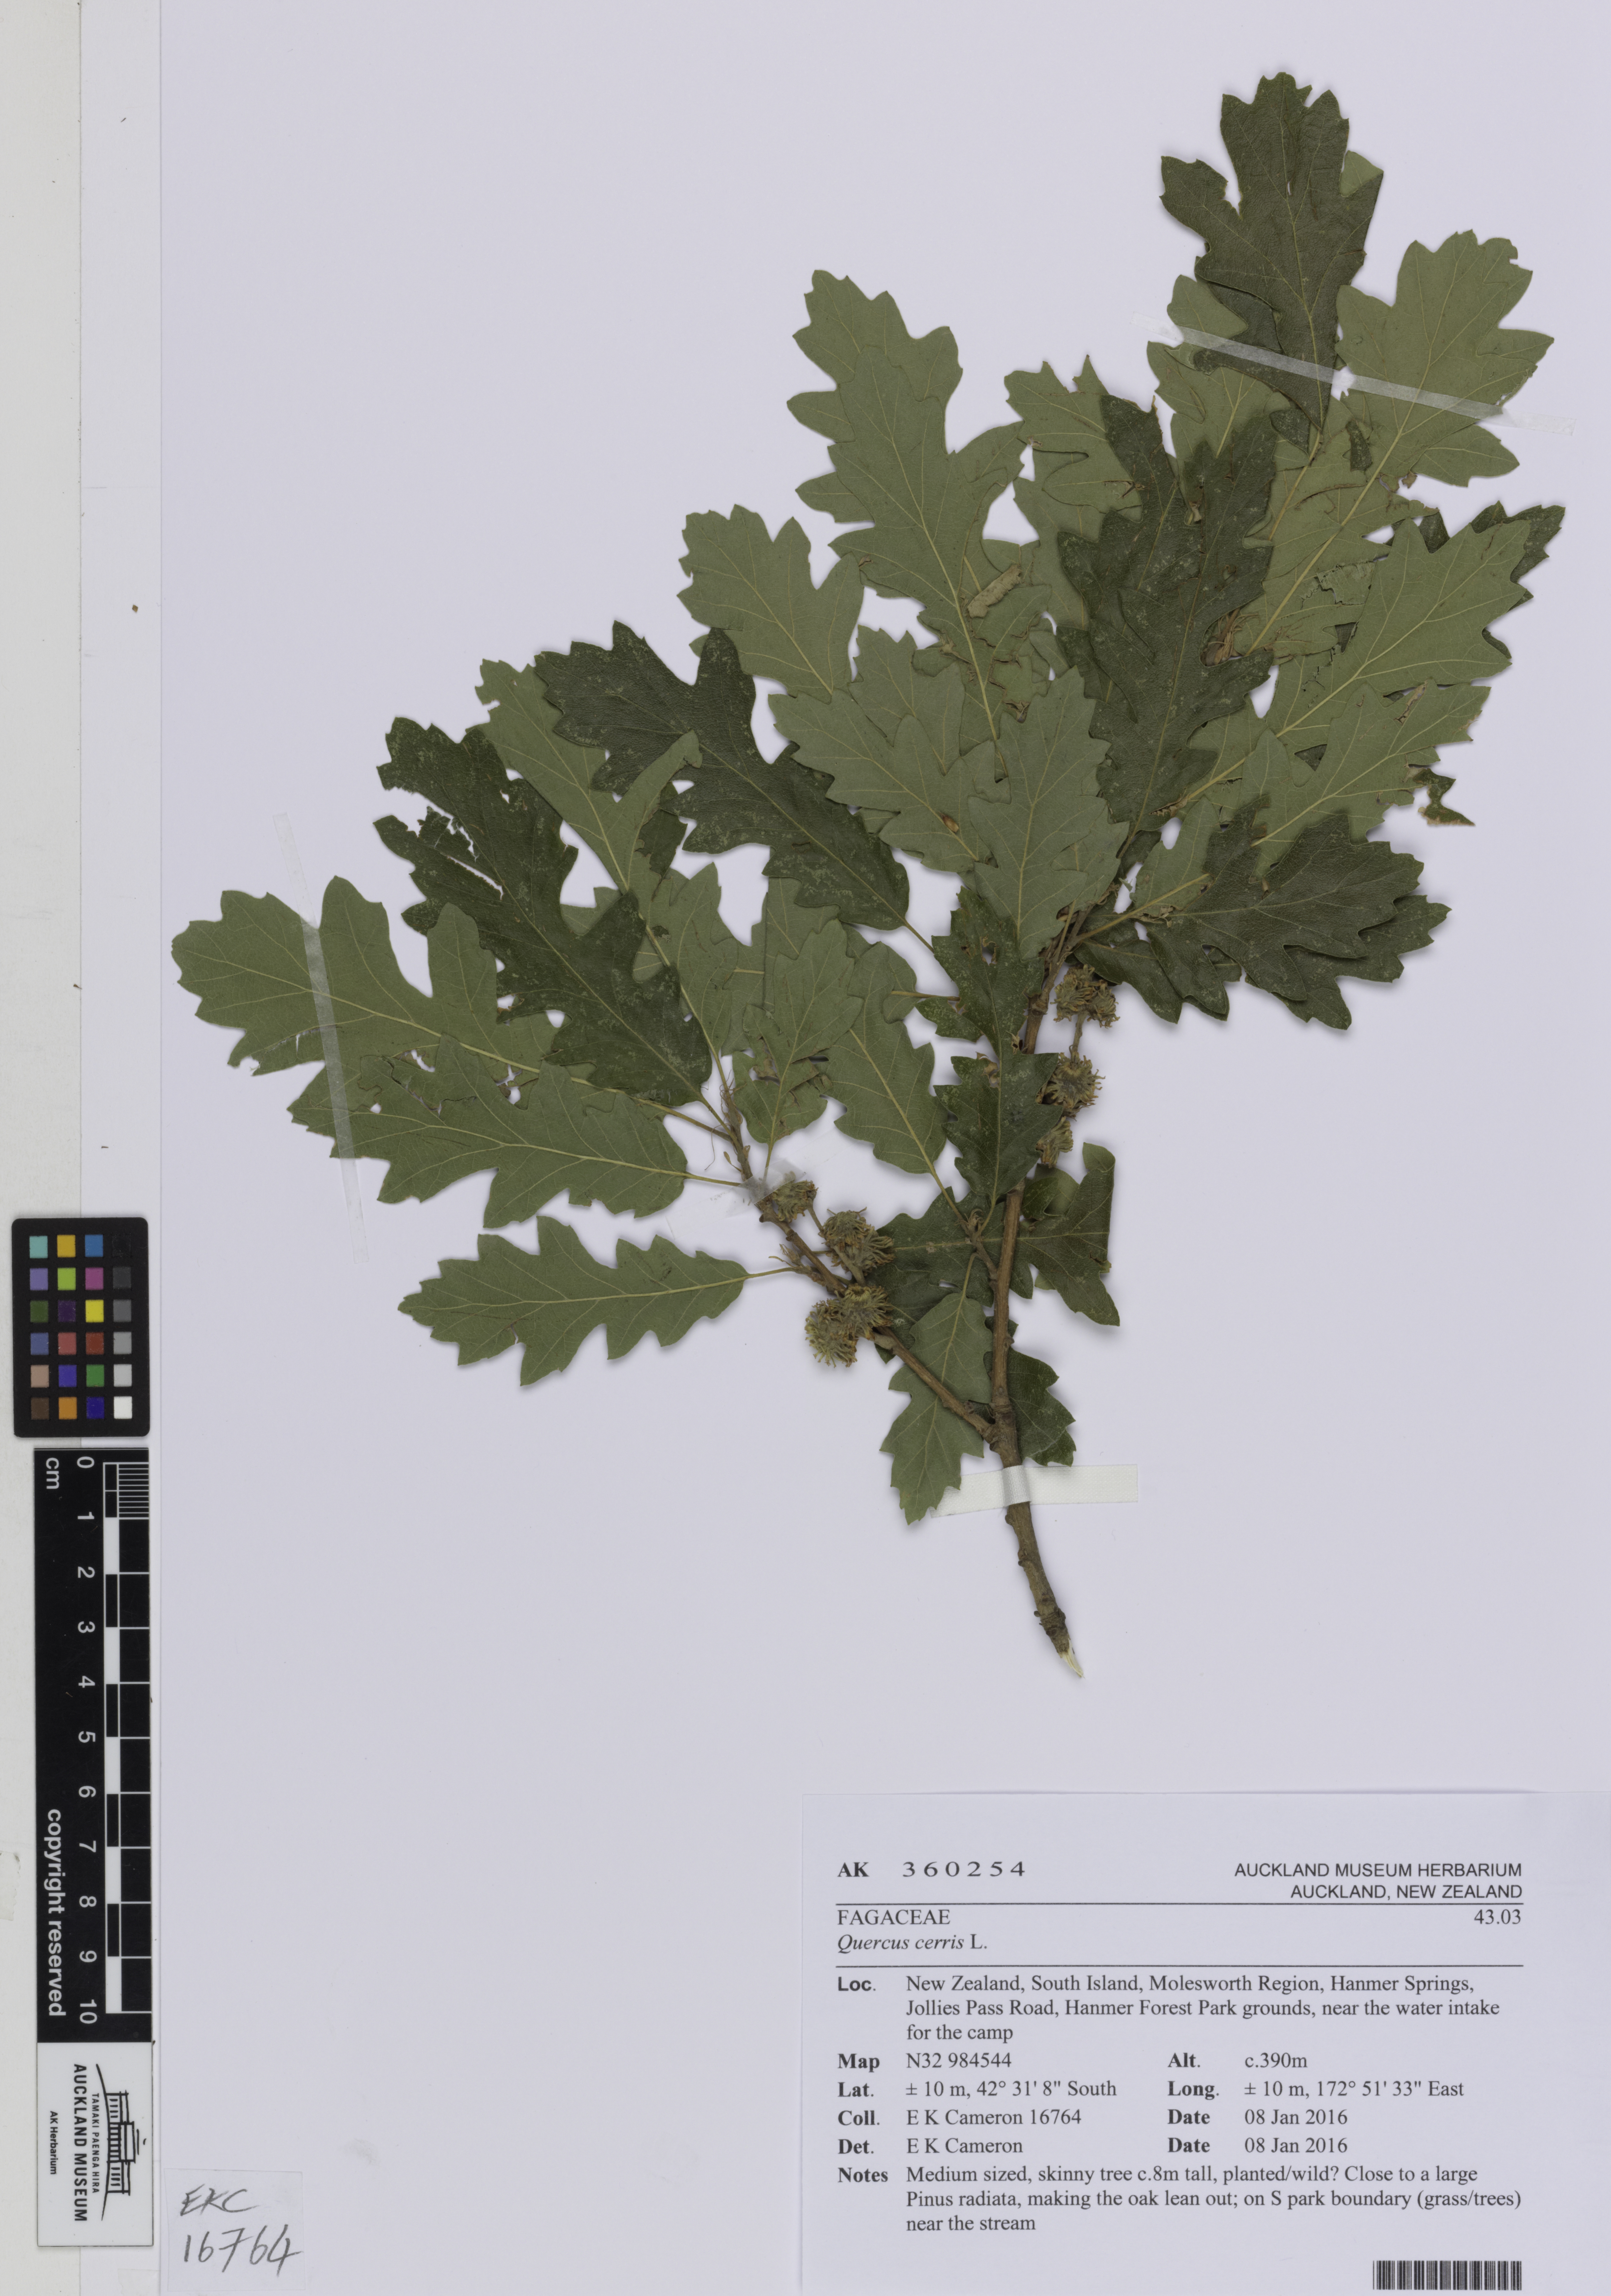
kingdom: Plantae
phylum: Tracheophyta
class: Magnoliopsida
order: Fagales
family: Fagaceae
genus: Quercus
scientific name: Quercus cerris
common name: Turkey oak
